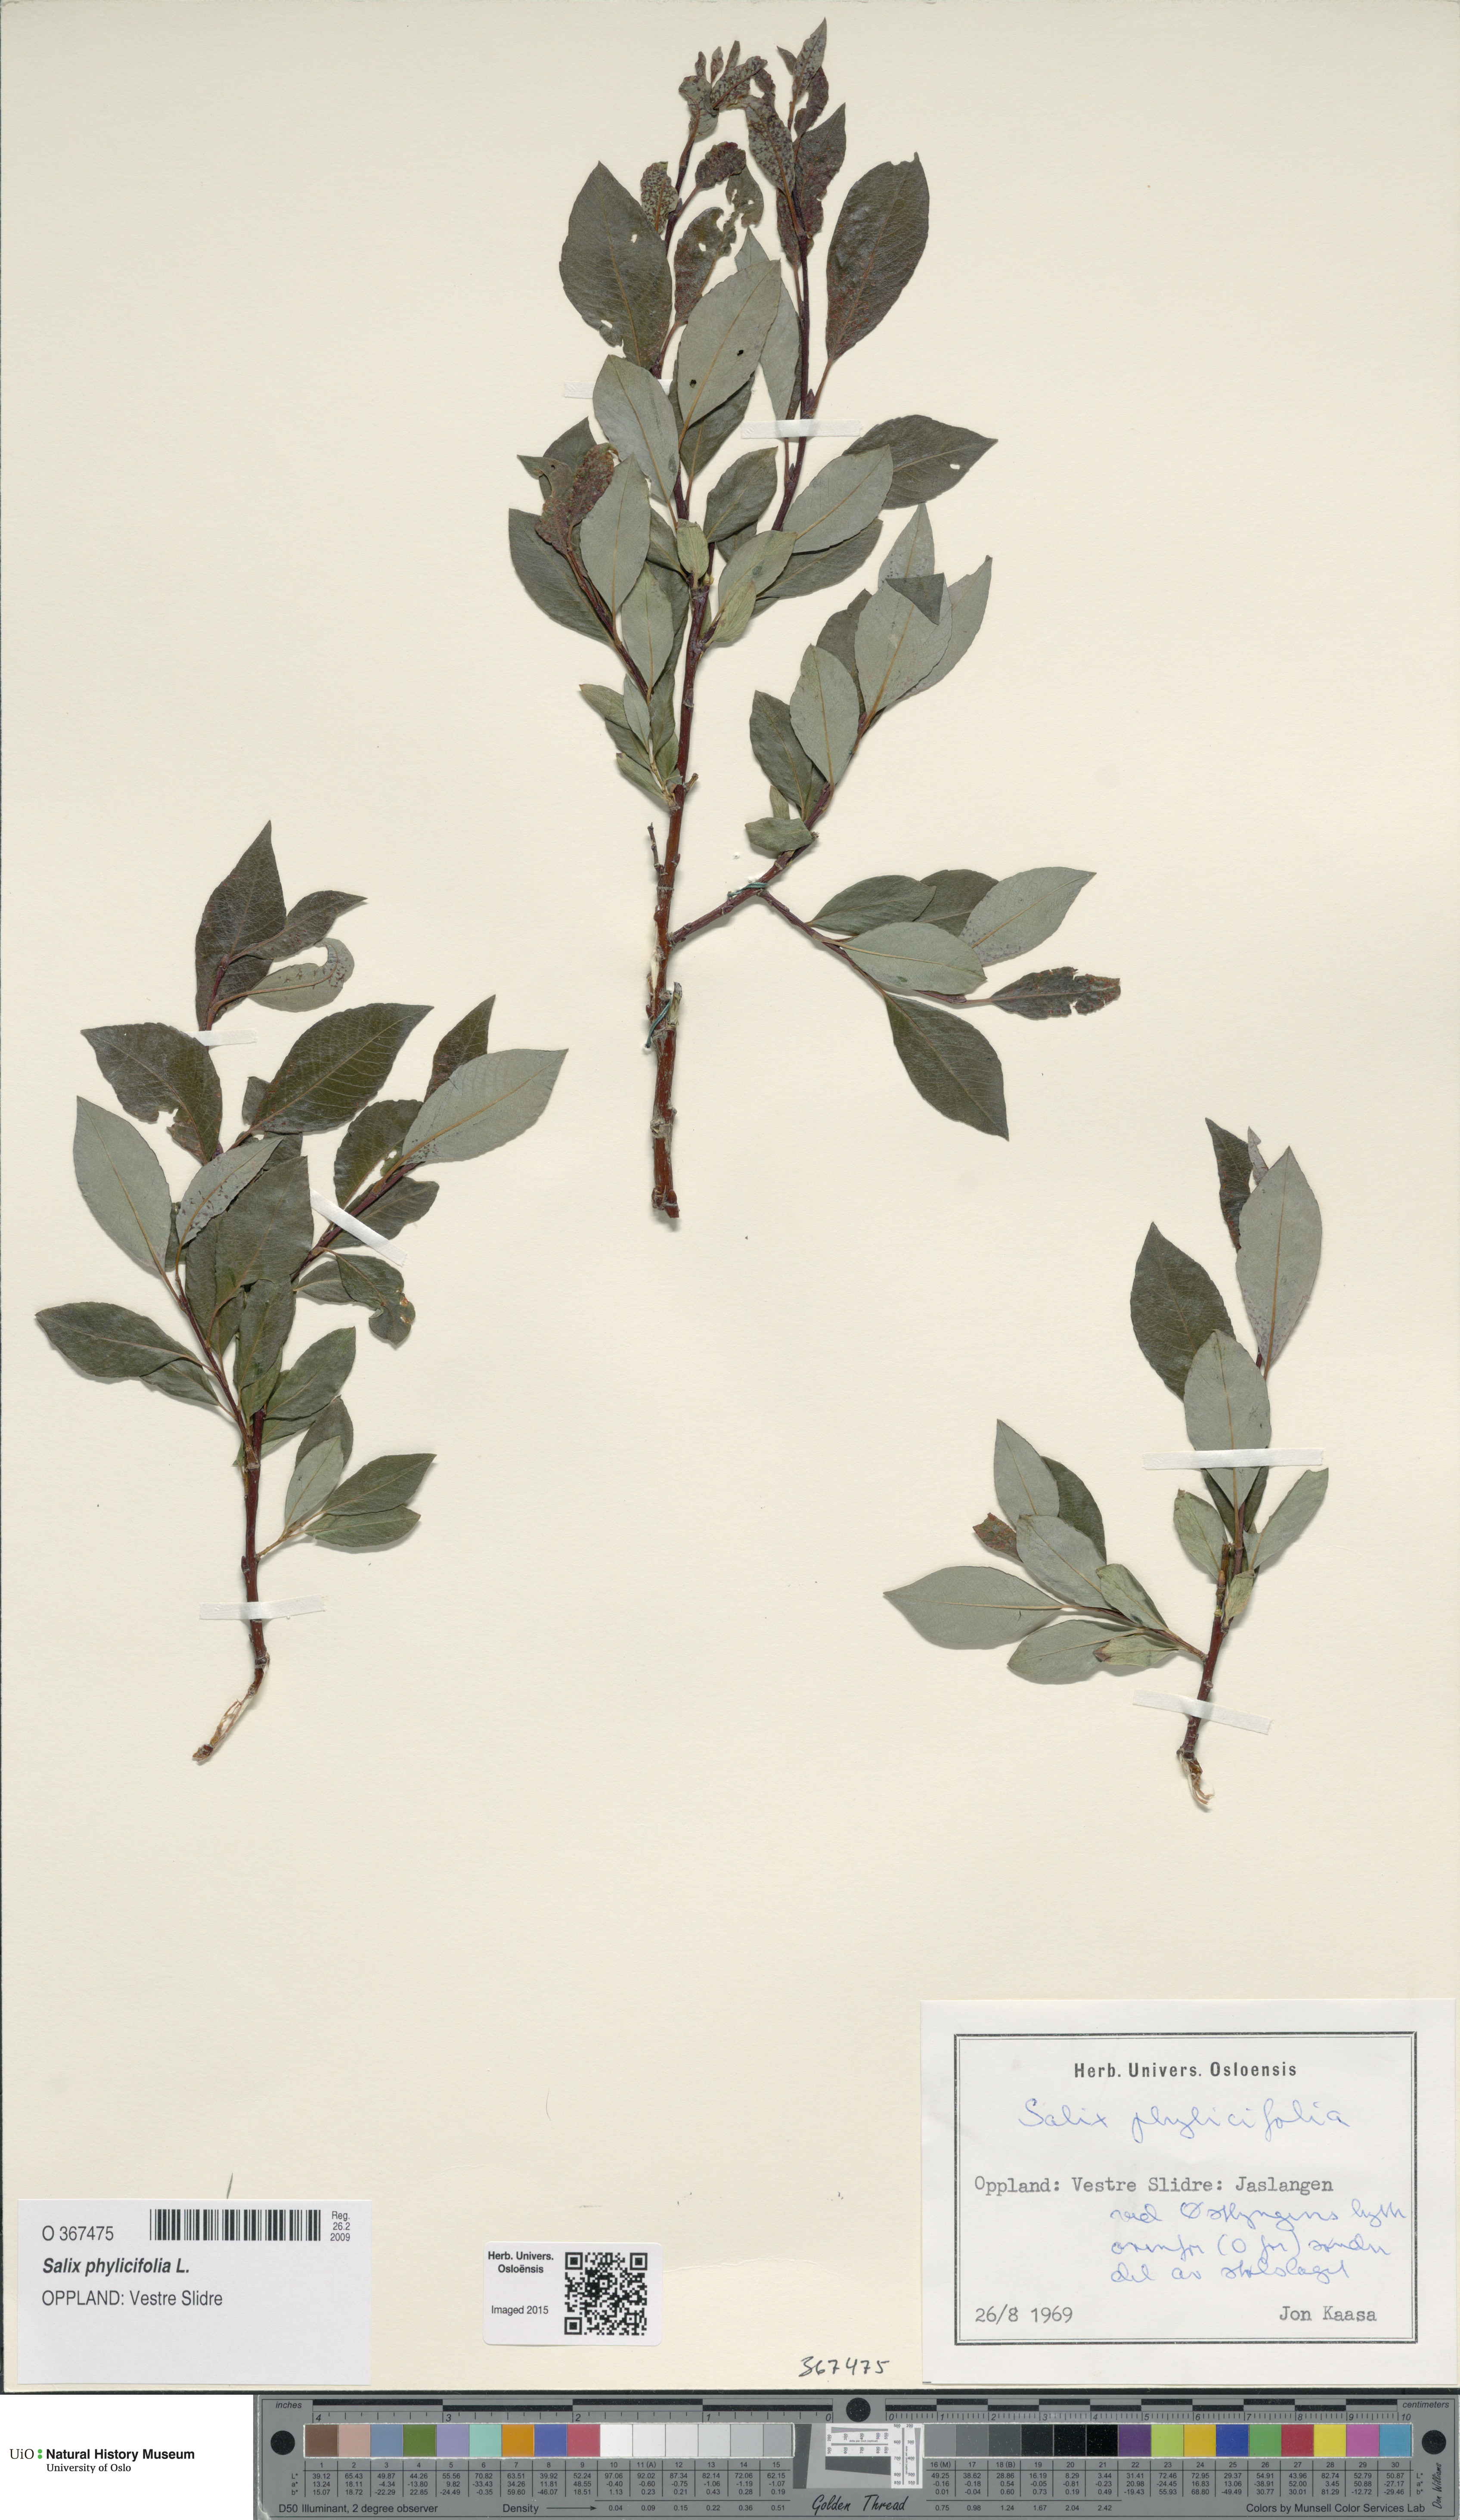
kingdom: Plantae
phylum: Tracheophyta
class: Magnoliopsida
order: Malpighiales
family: Salicaceae
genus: Salix
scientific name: Salix phylicifolia
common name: Tea-leaved willow
